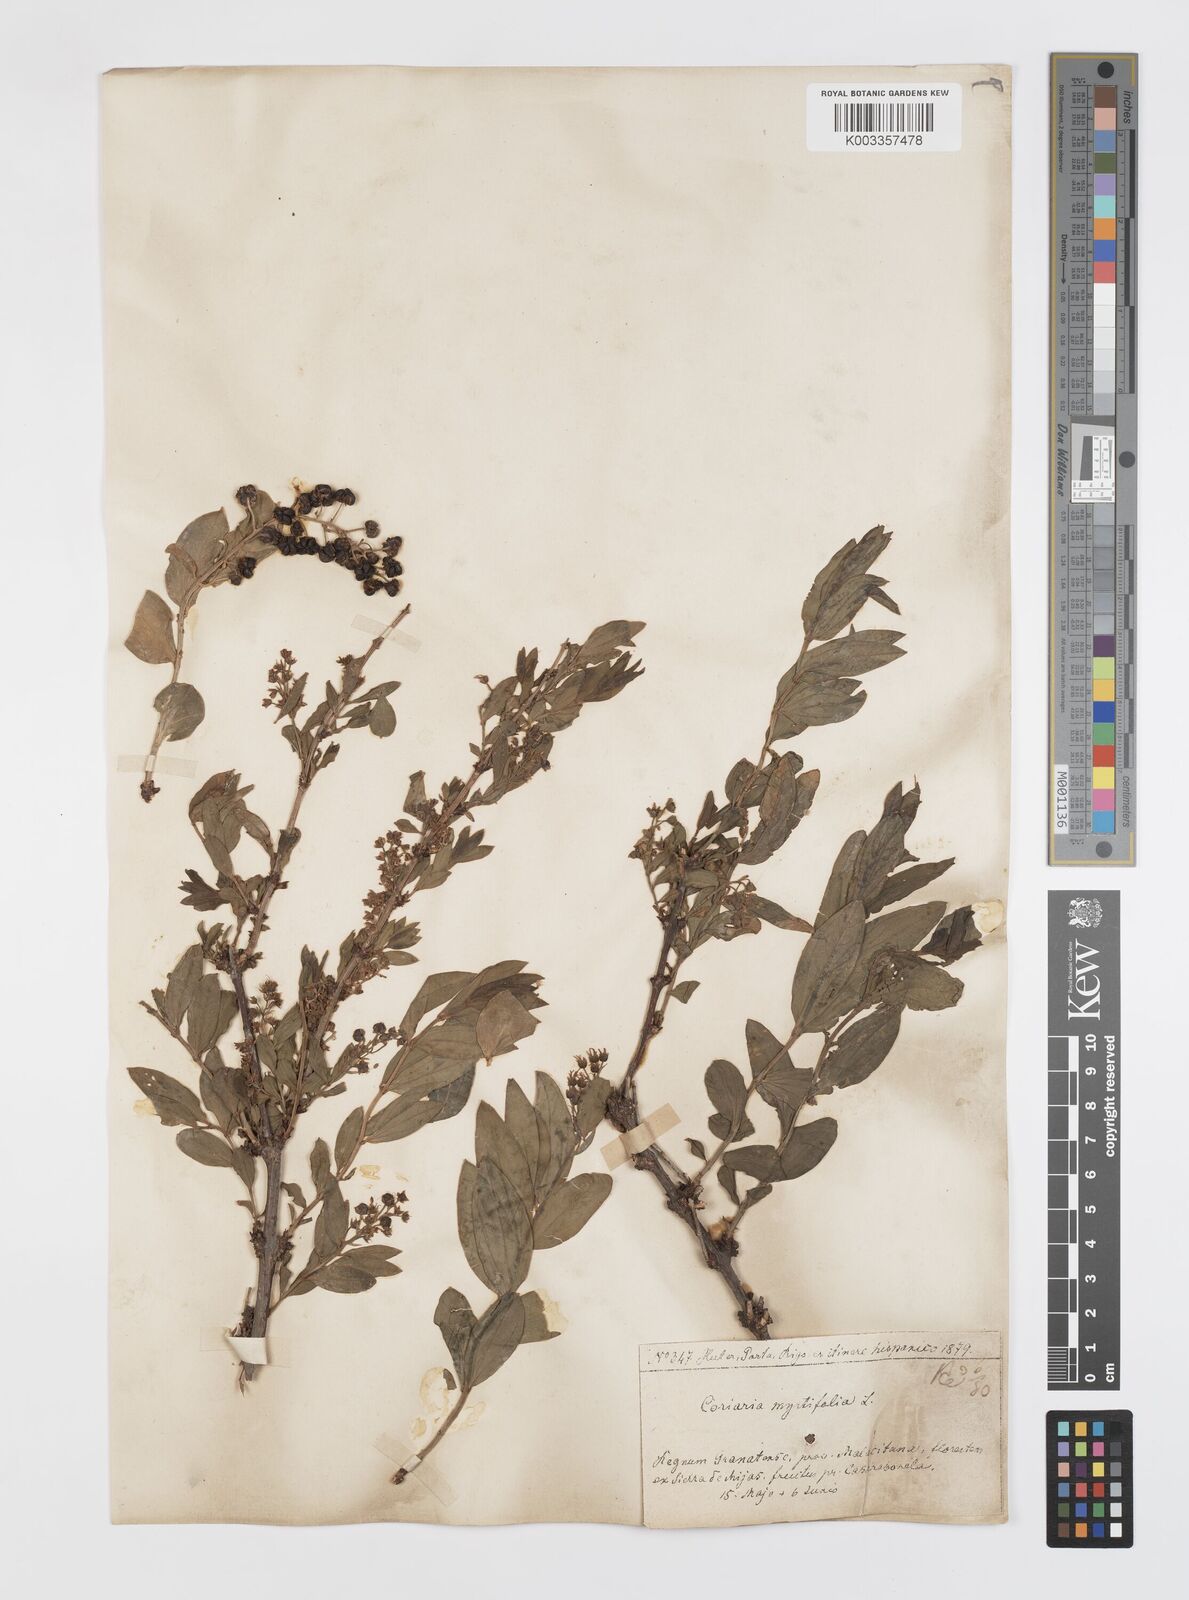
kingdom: Plantae
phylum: Tracheophyta
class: Magnoliopsida
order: Cucurbitales
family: Coriariaceae
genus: Coriaria
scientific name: Coriaria myrtifolia
